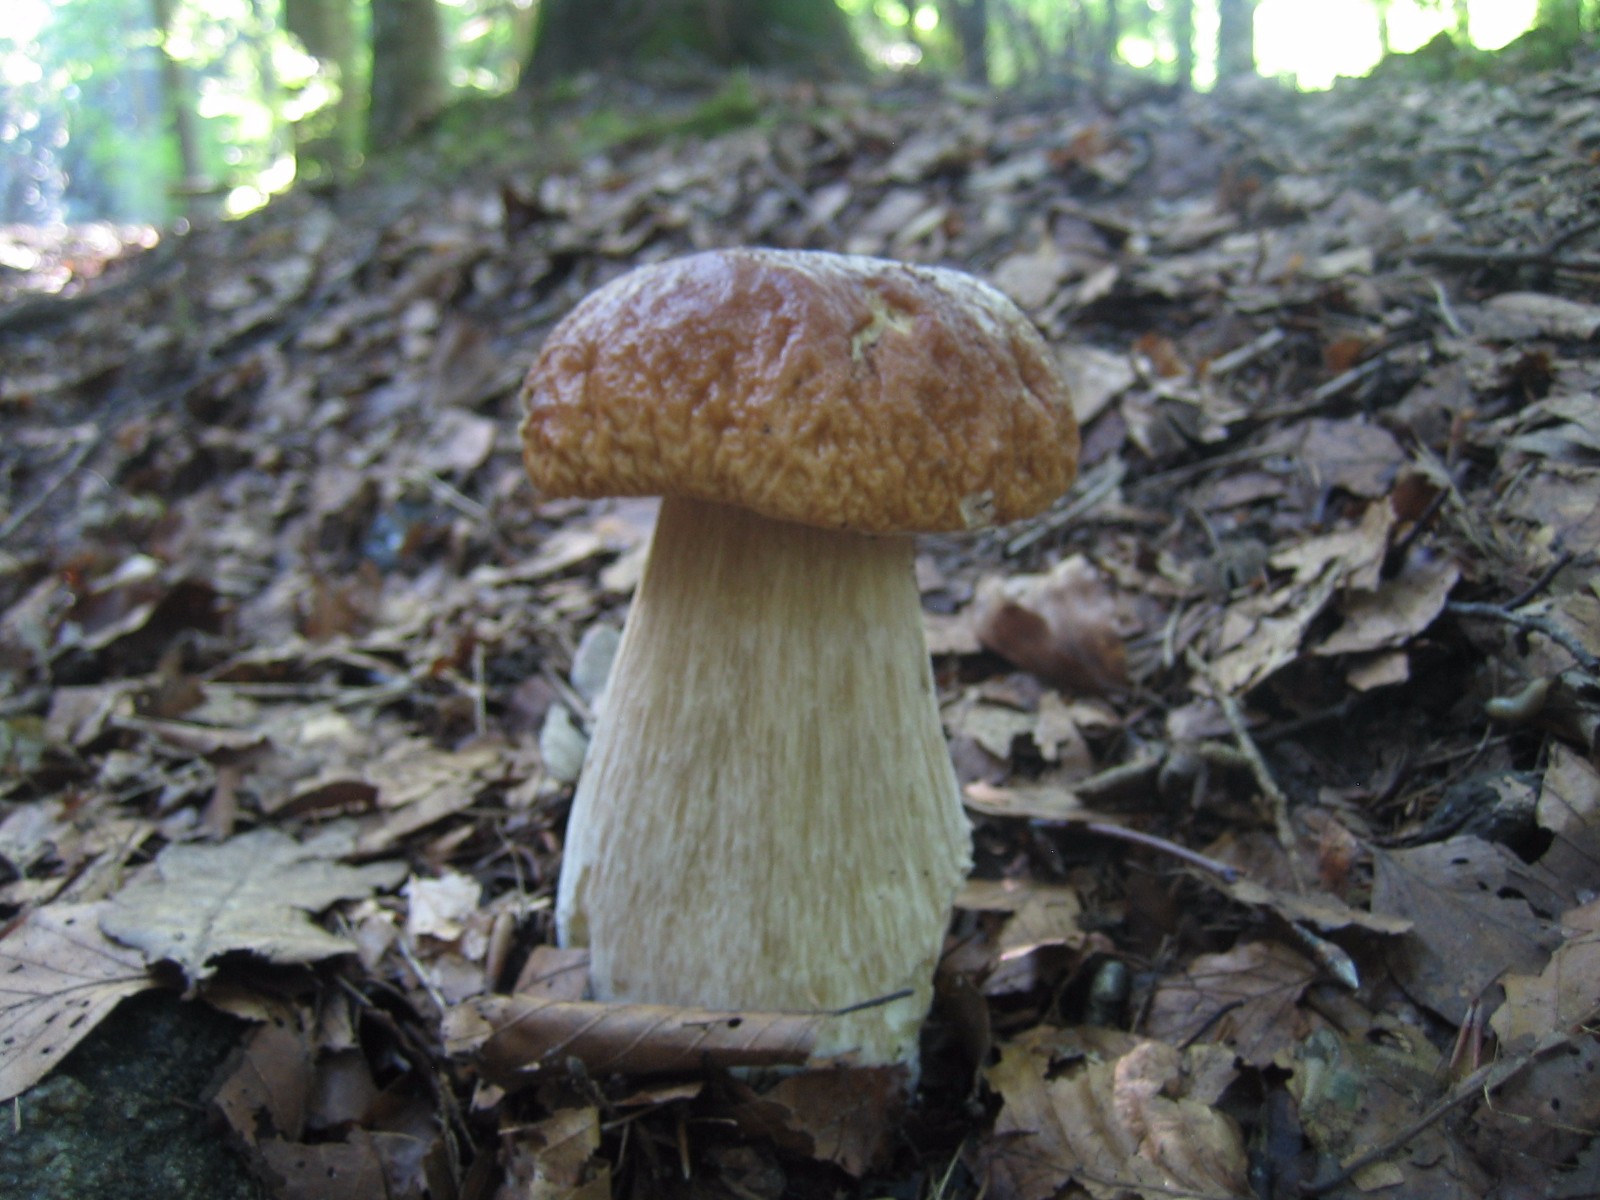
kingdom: Fungi
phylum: Basidiomycota
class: Agaricomycetes
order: Boletales
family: Boletaceae
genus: Boletus
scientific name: Boletus edulis
